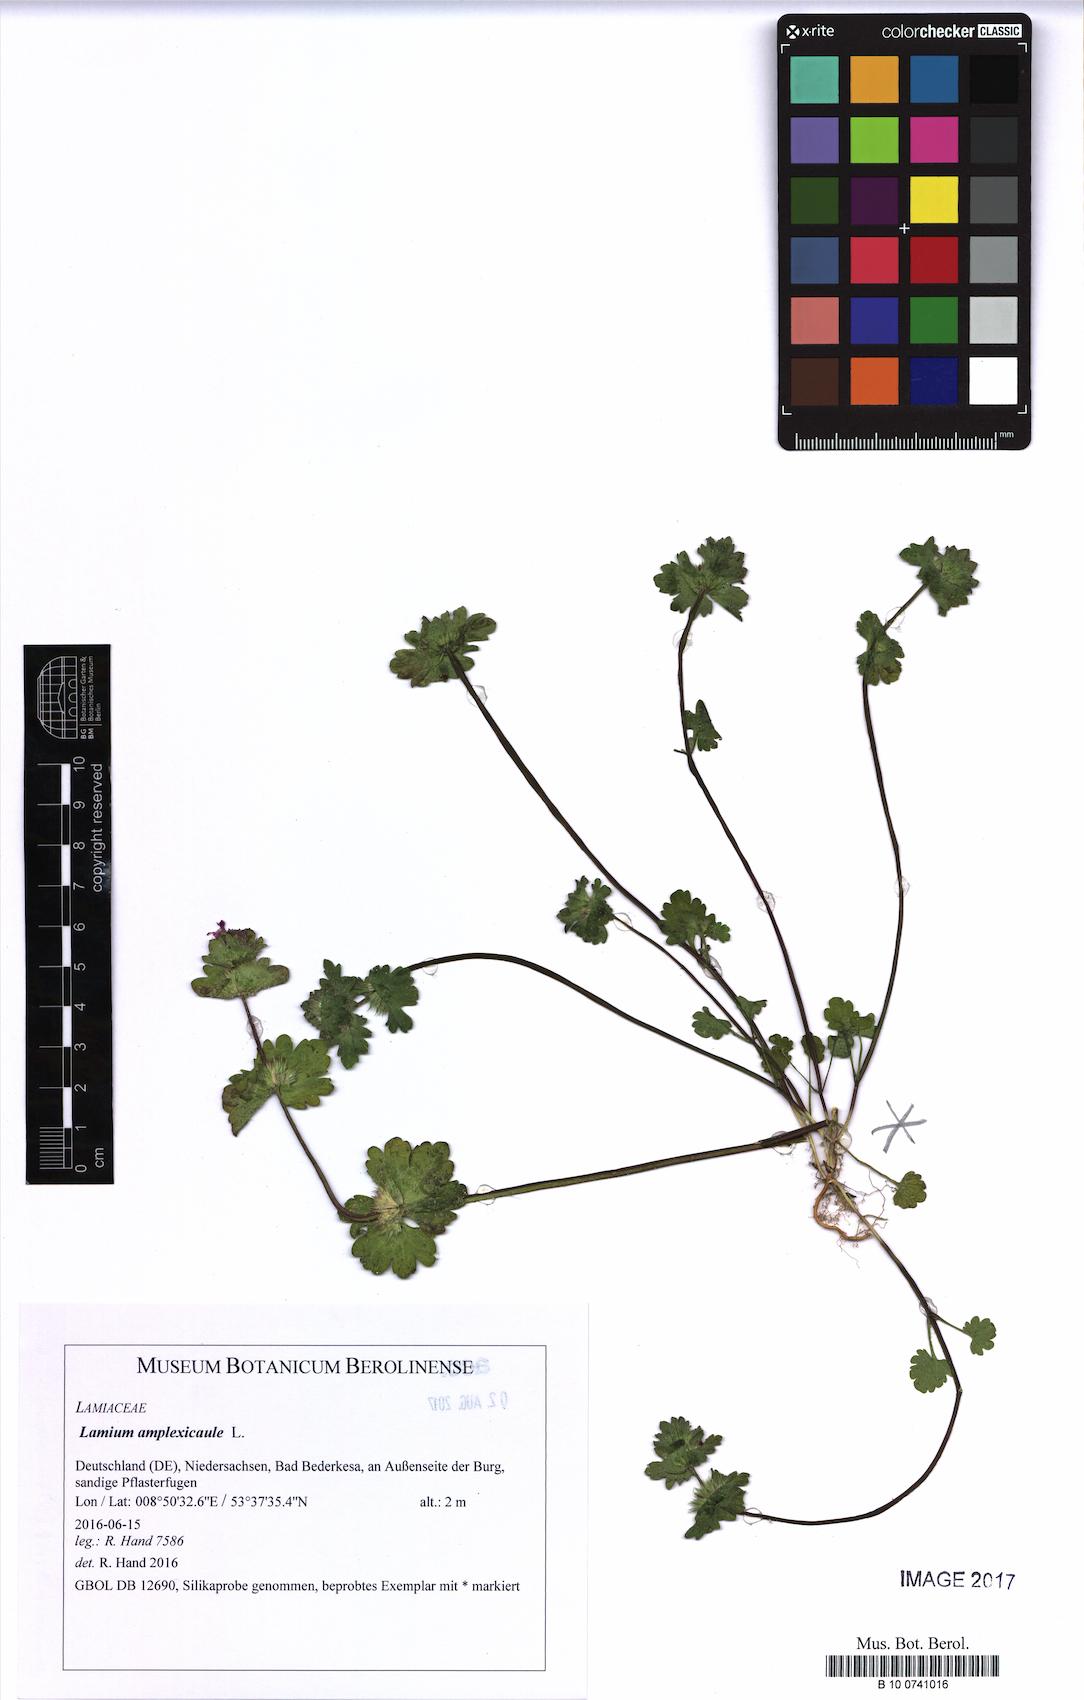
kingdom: Plantae
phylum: Tracheophyta
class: Magnoliopsida
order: Lamiales
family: Lamiaceae
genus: Stachys
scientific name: Stachys recta
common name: Perennial yellow-woundwort
